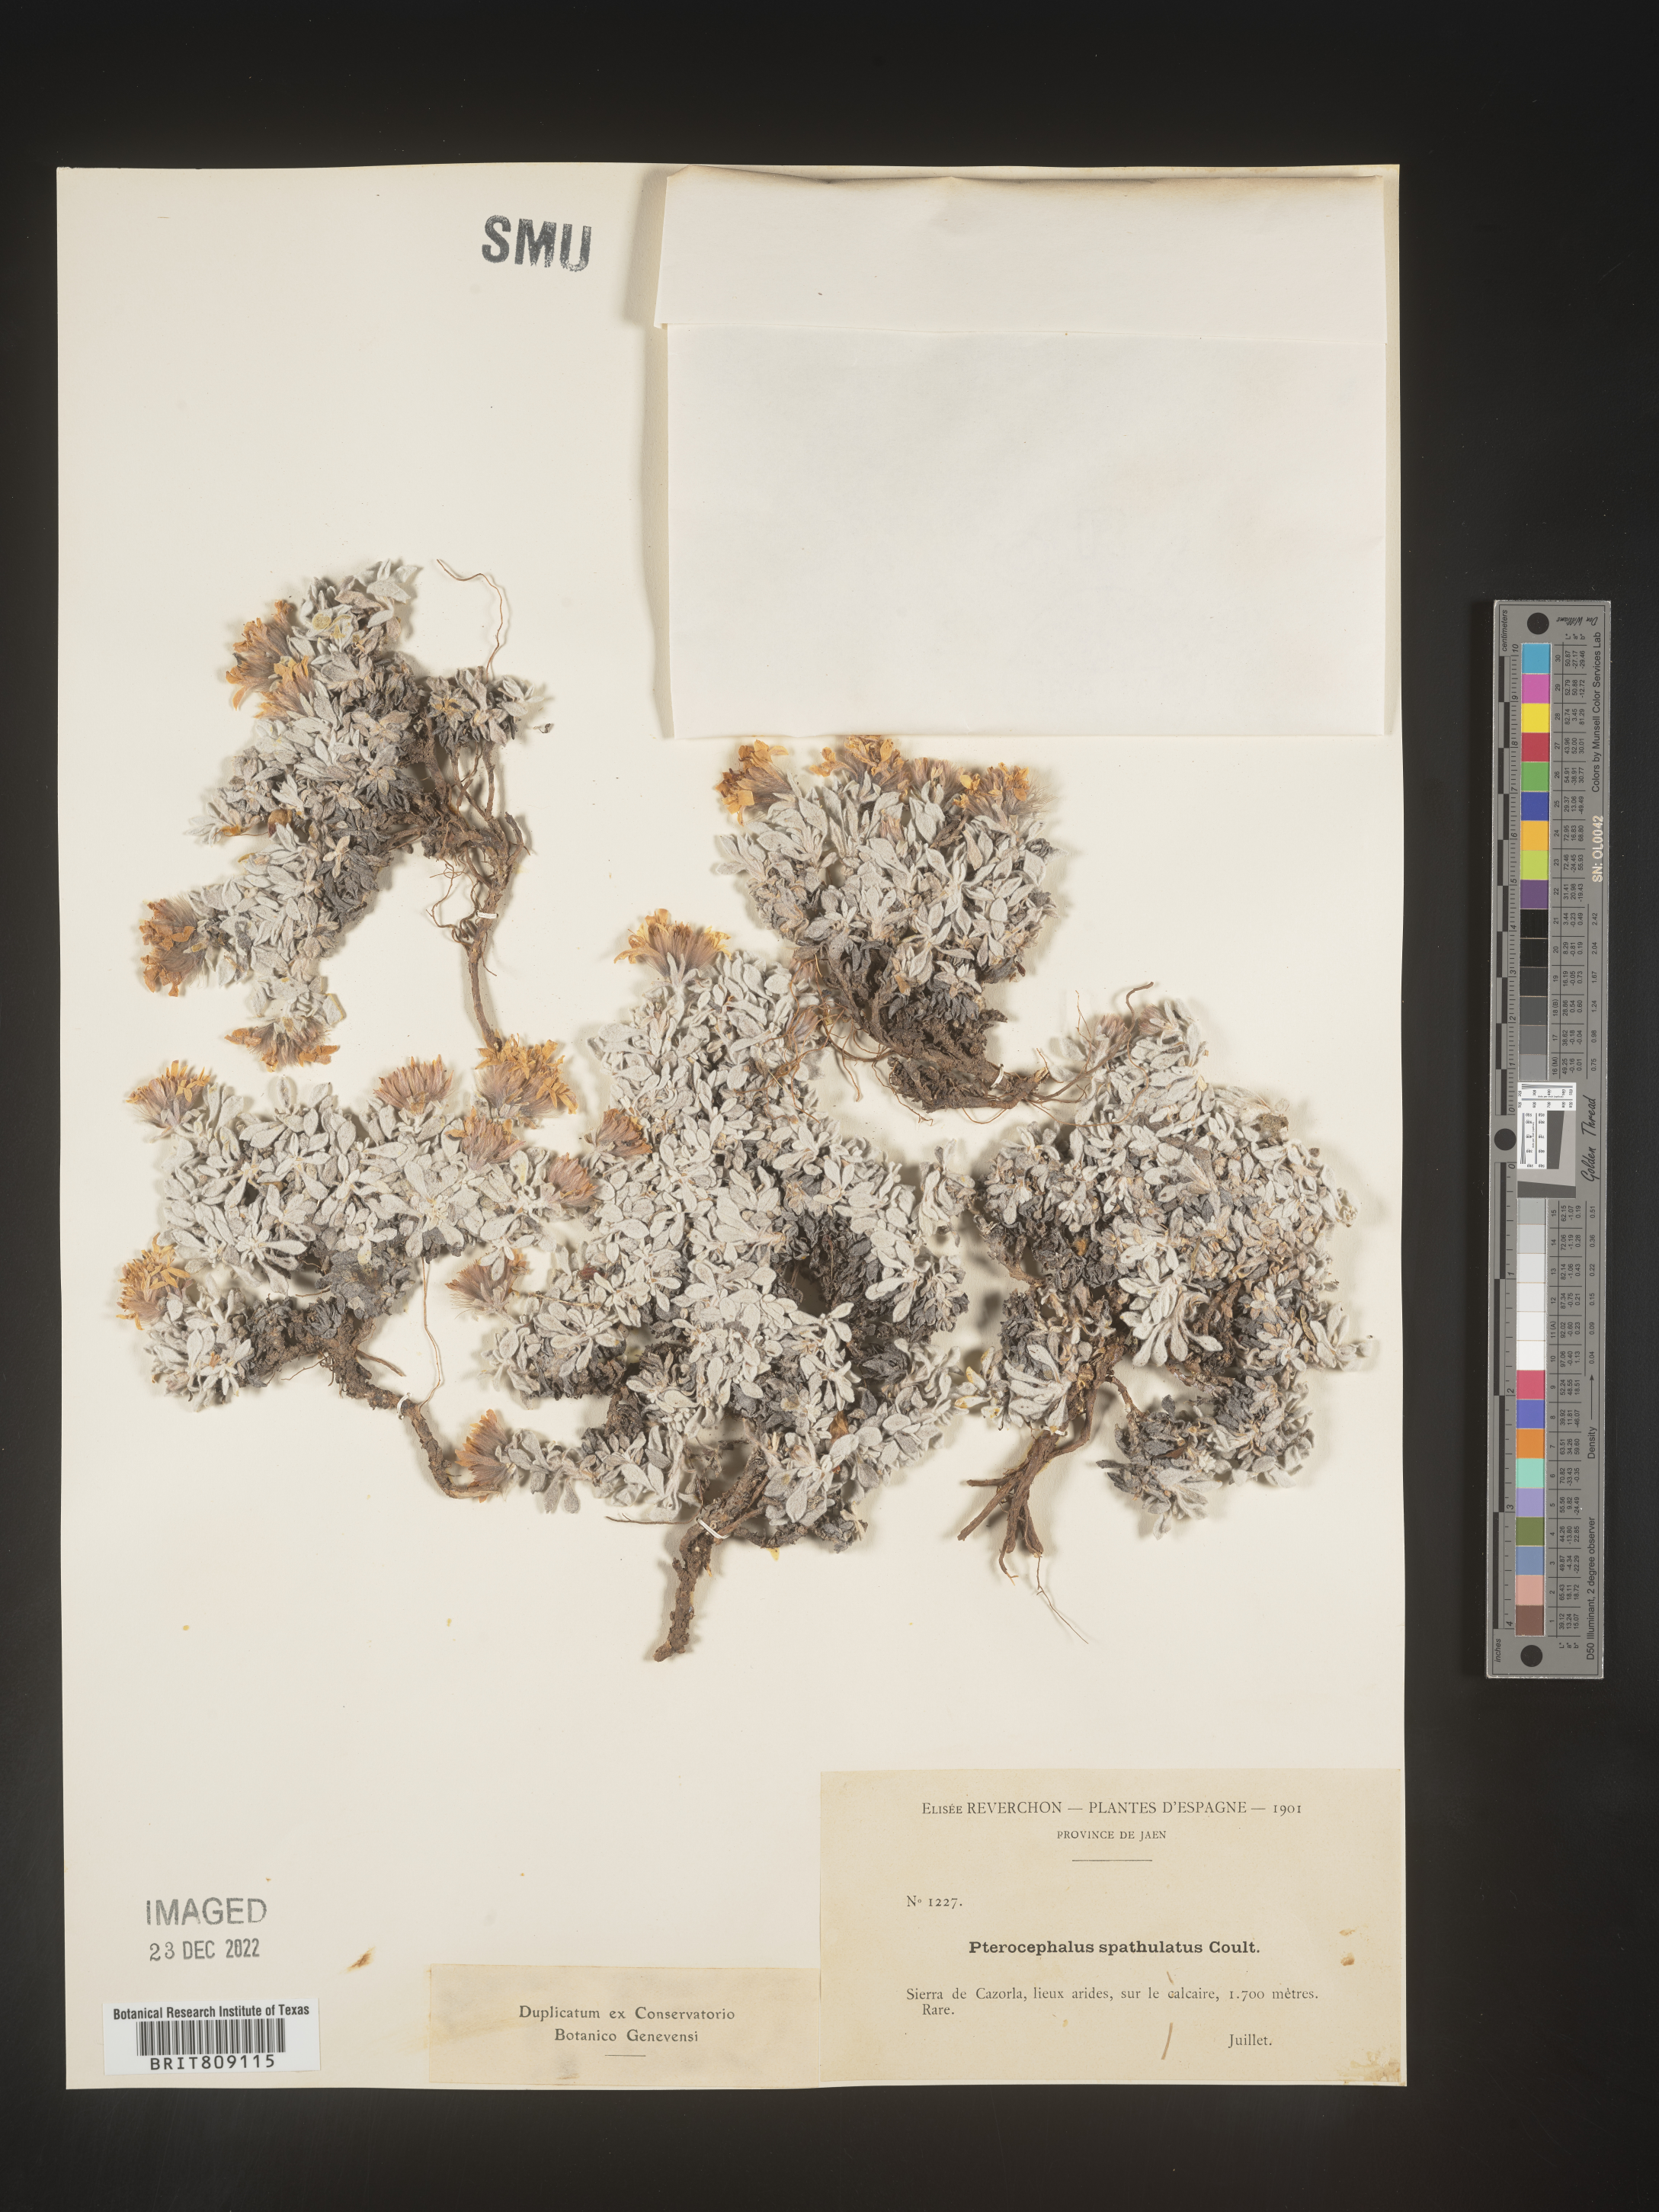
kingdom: Plantae
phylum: Tracheophyta
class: Magnoliopsida
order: Dipsacales
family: Caprifoliaceae
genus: Pterocephalus
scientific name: Pterocephalus
